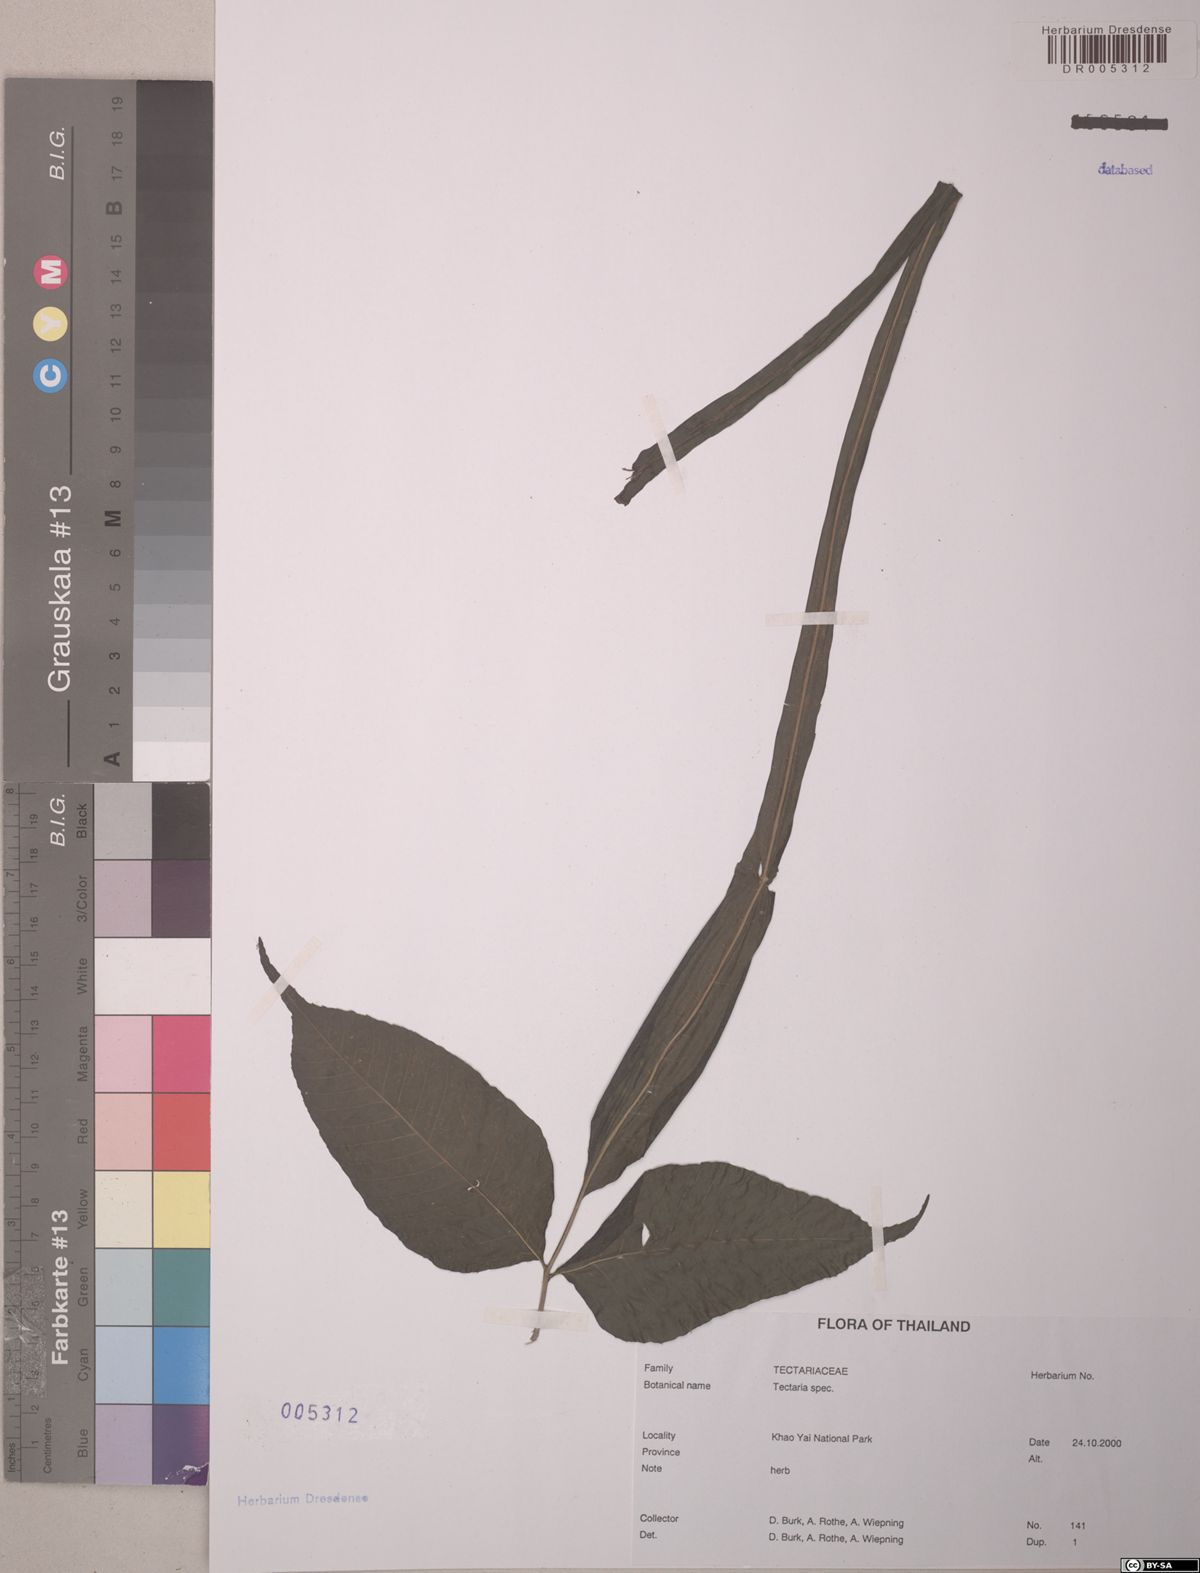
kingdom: Plantae
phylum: Tracheophyta
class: Polypodiopsida
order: Polypodiales
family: Tectariaceae
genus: Tectaria
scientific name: Tectaria
